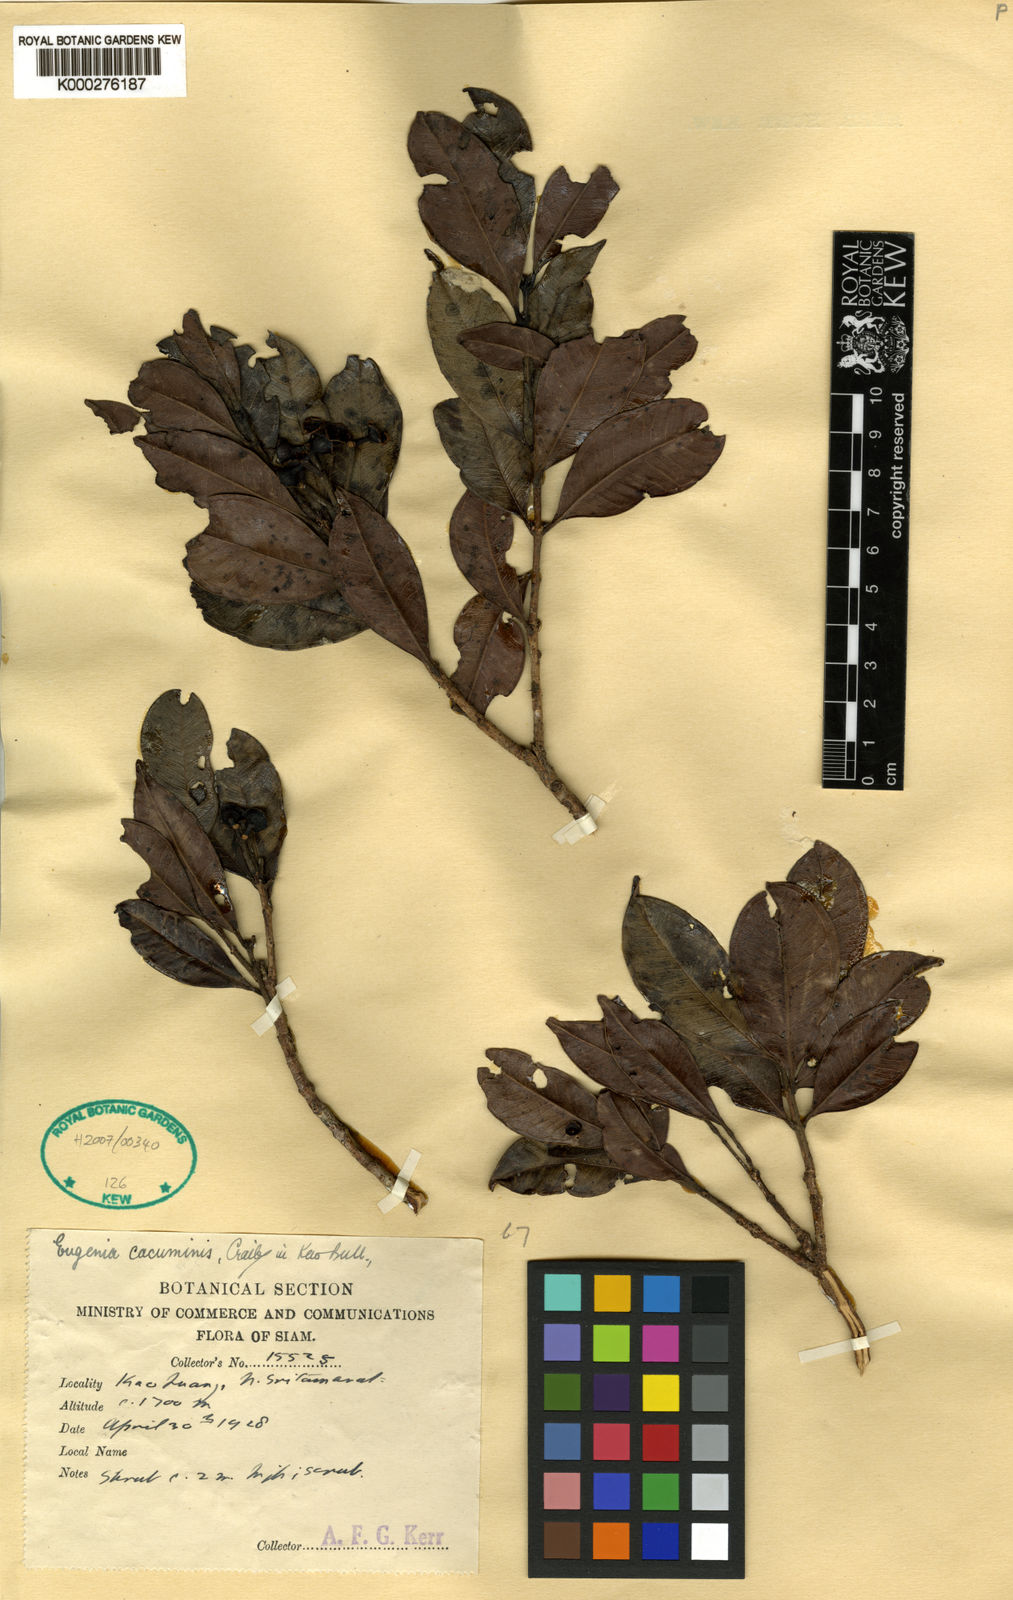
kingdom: Plantae
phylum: Tracheophyta
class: Magnoliopsida
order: Myrtales
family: Myrtaceae
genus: Syzygium
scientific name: Syzygium cacuminis
